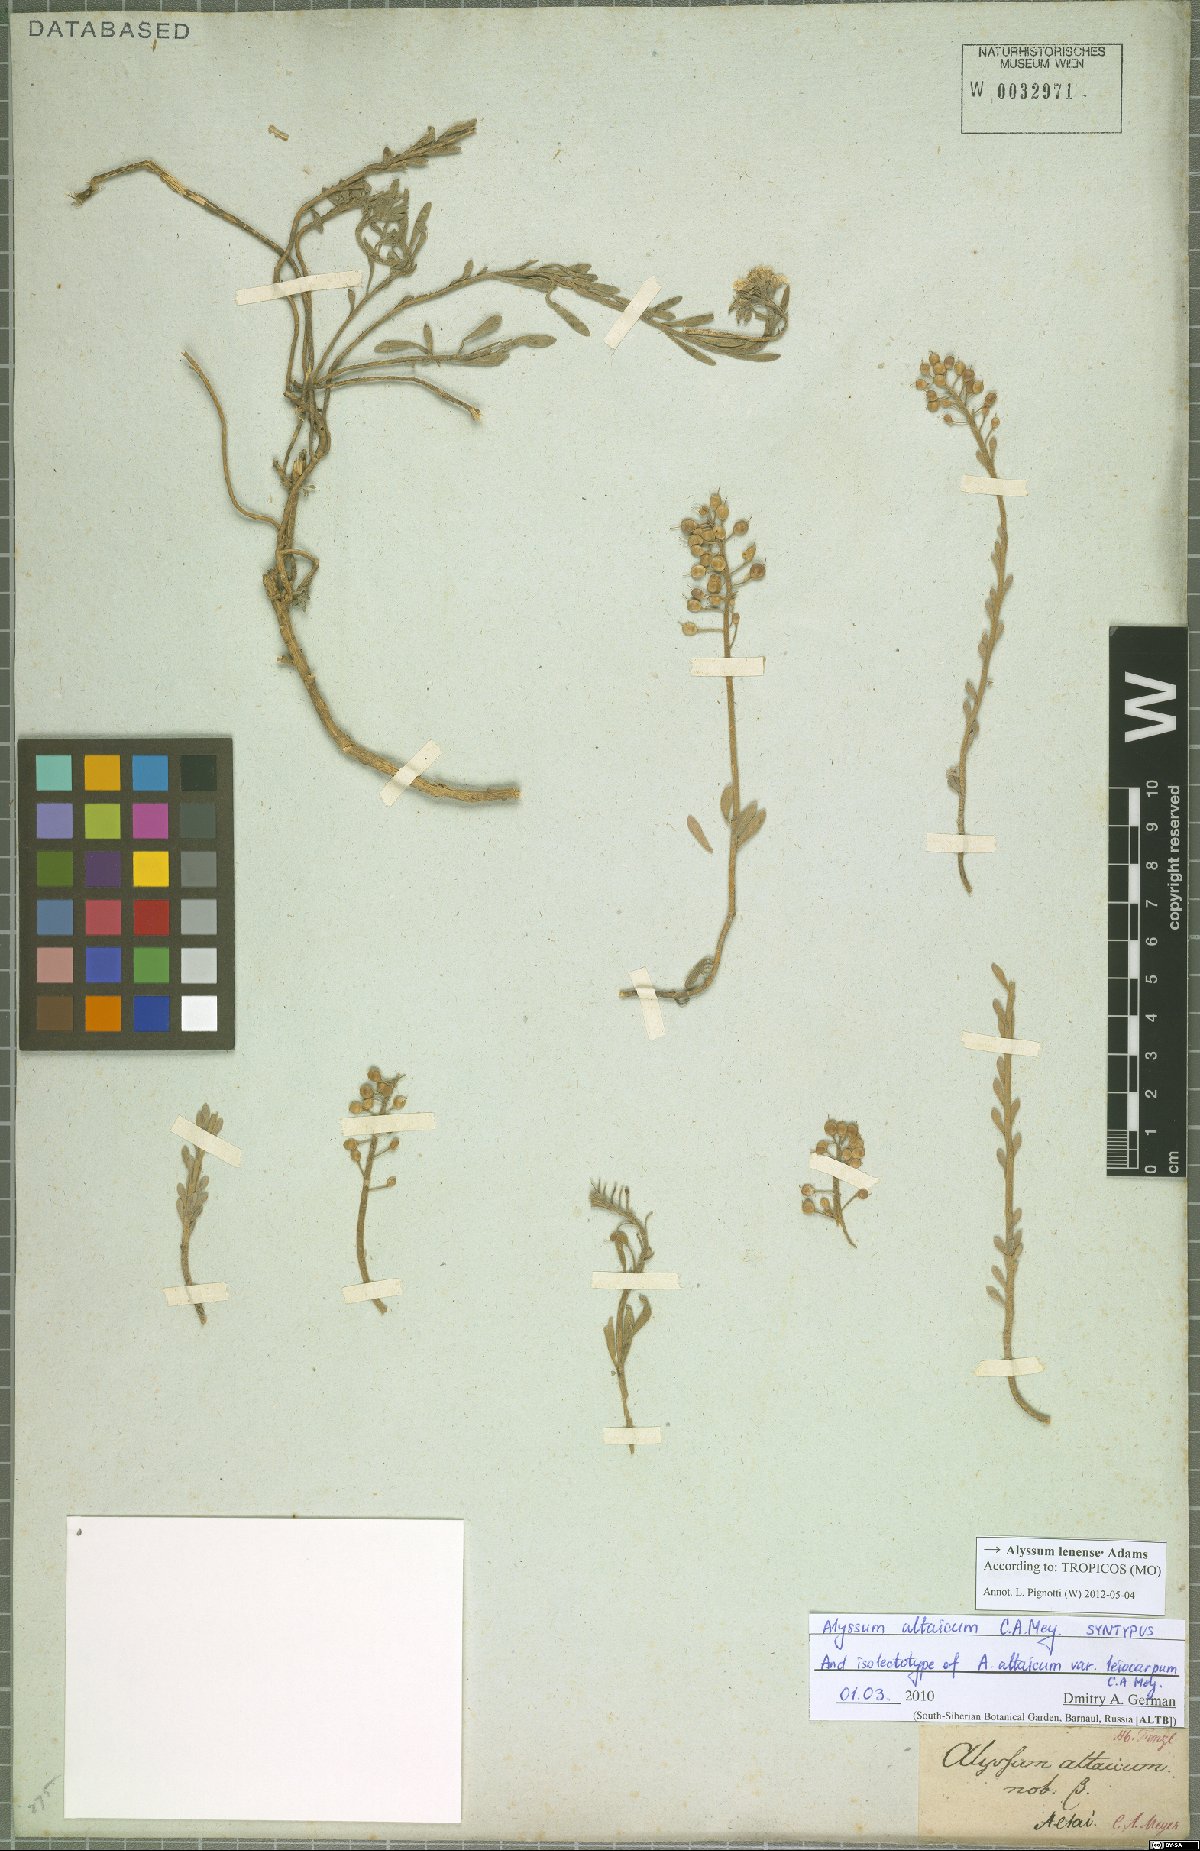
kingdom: Plantae
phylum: Tracheophyta
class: Magnoliopsida
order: Brassicales
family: Brassicaceae
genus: Alyssum
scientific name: Alyssum lenense
